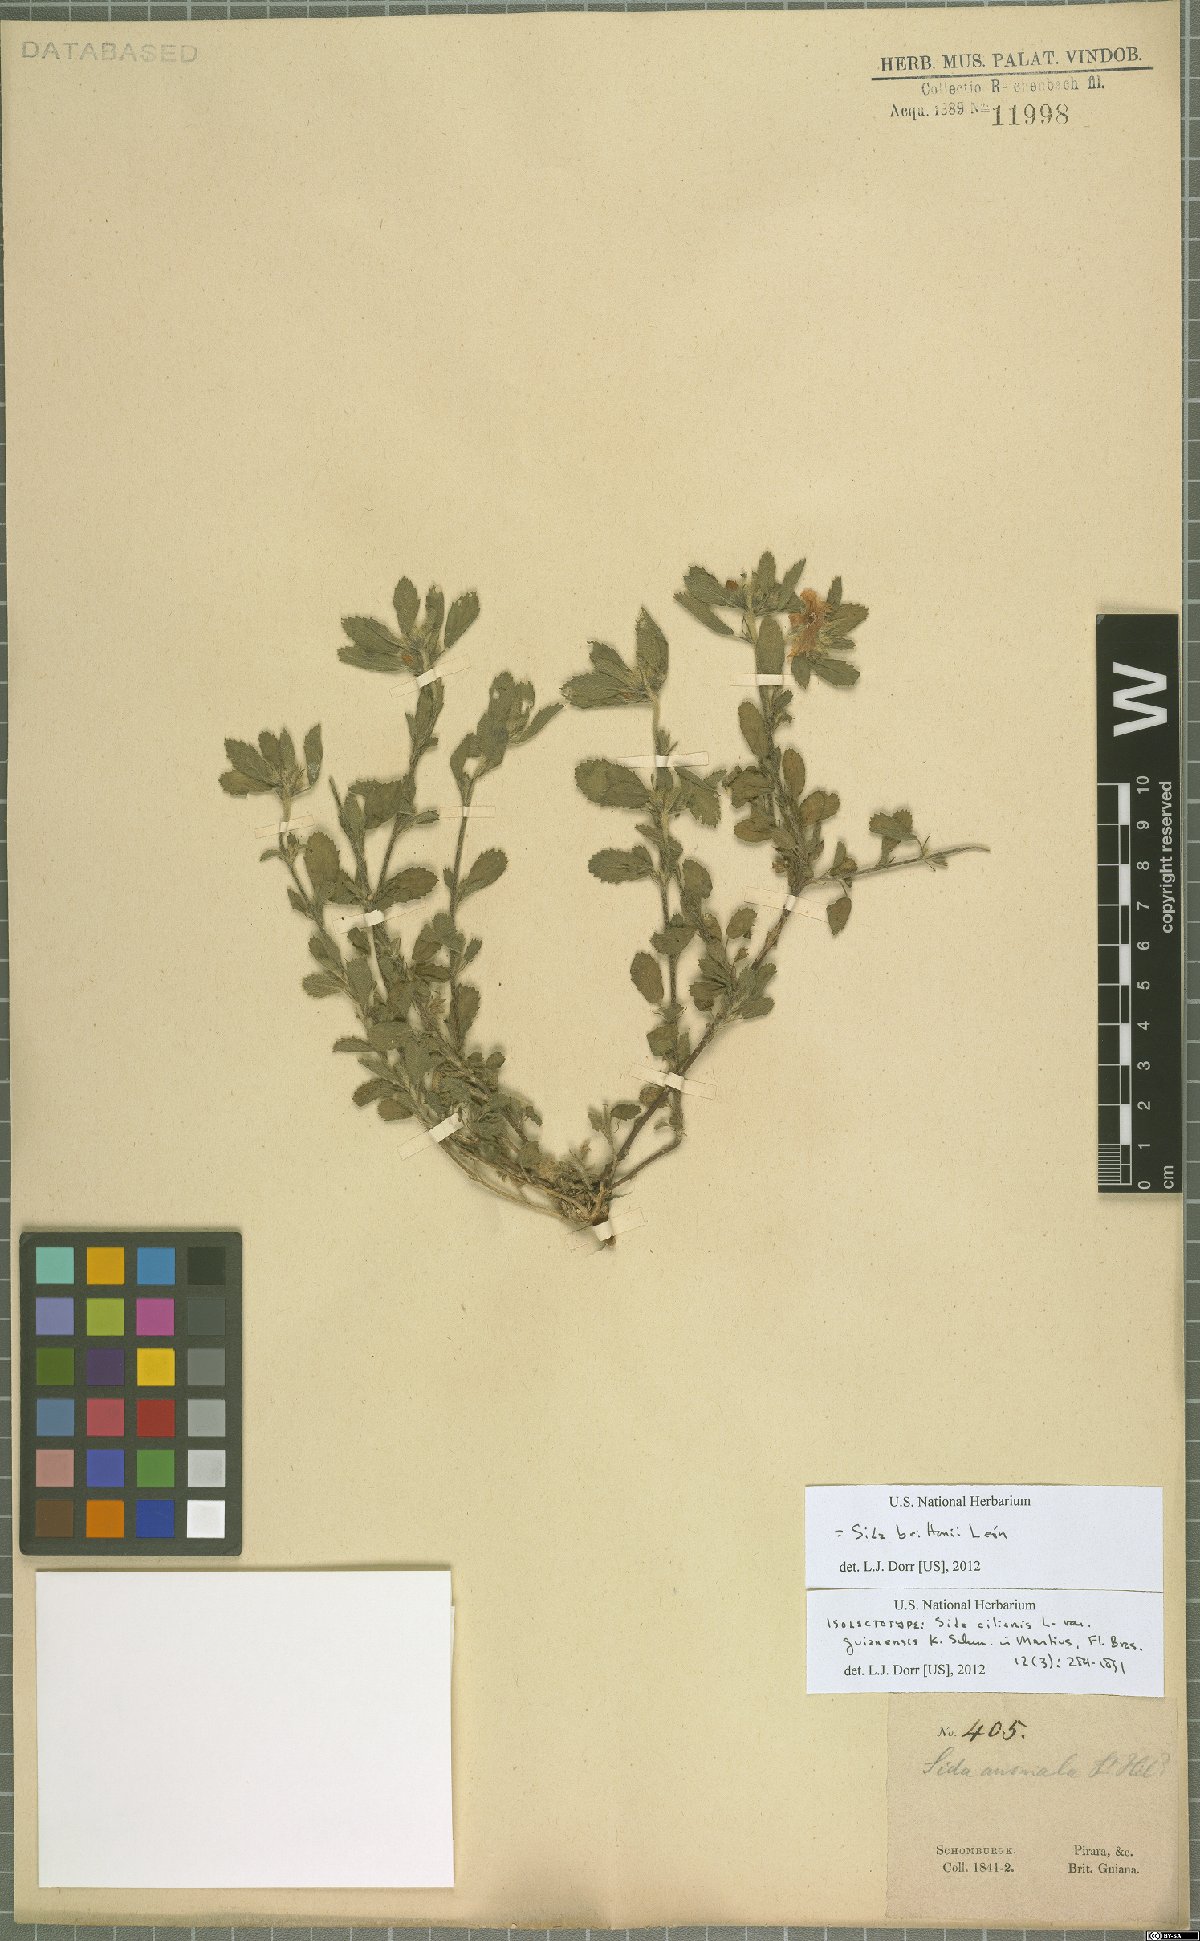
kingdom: Plantae
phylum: Tracheophyta
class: Magnoliopsida
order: Malvales
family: Malvaceae
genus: Sida
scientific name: Sida brittonii
